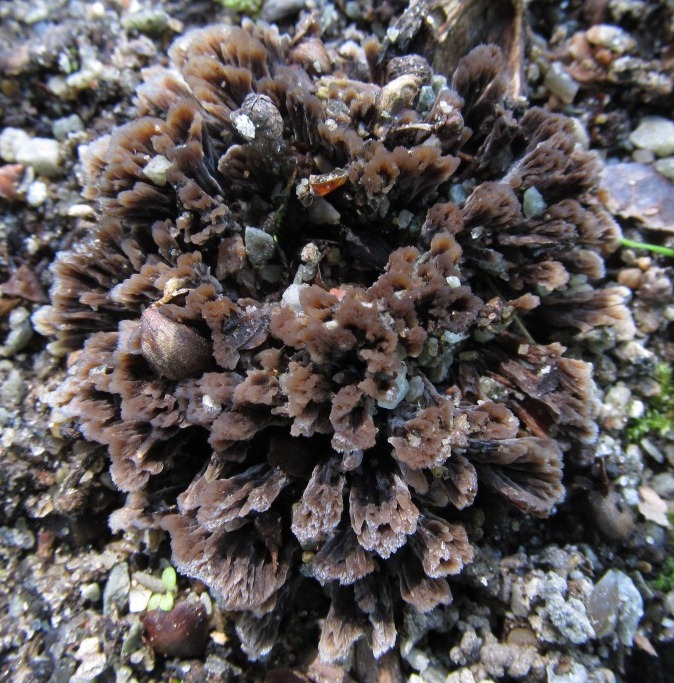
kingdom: Fungi
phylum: Basidiomycota
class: Agaricomycetes
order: Thelephorales
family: Thelephoraceae
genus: Thelephora
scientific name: Thelephora anthocephala
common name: busk-frynsesvamp
